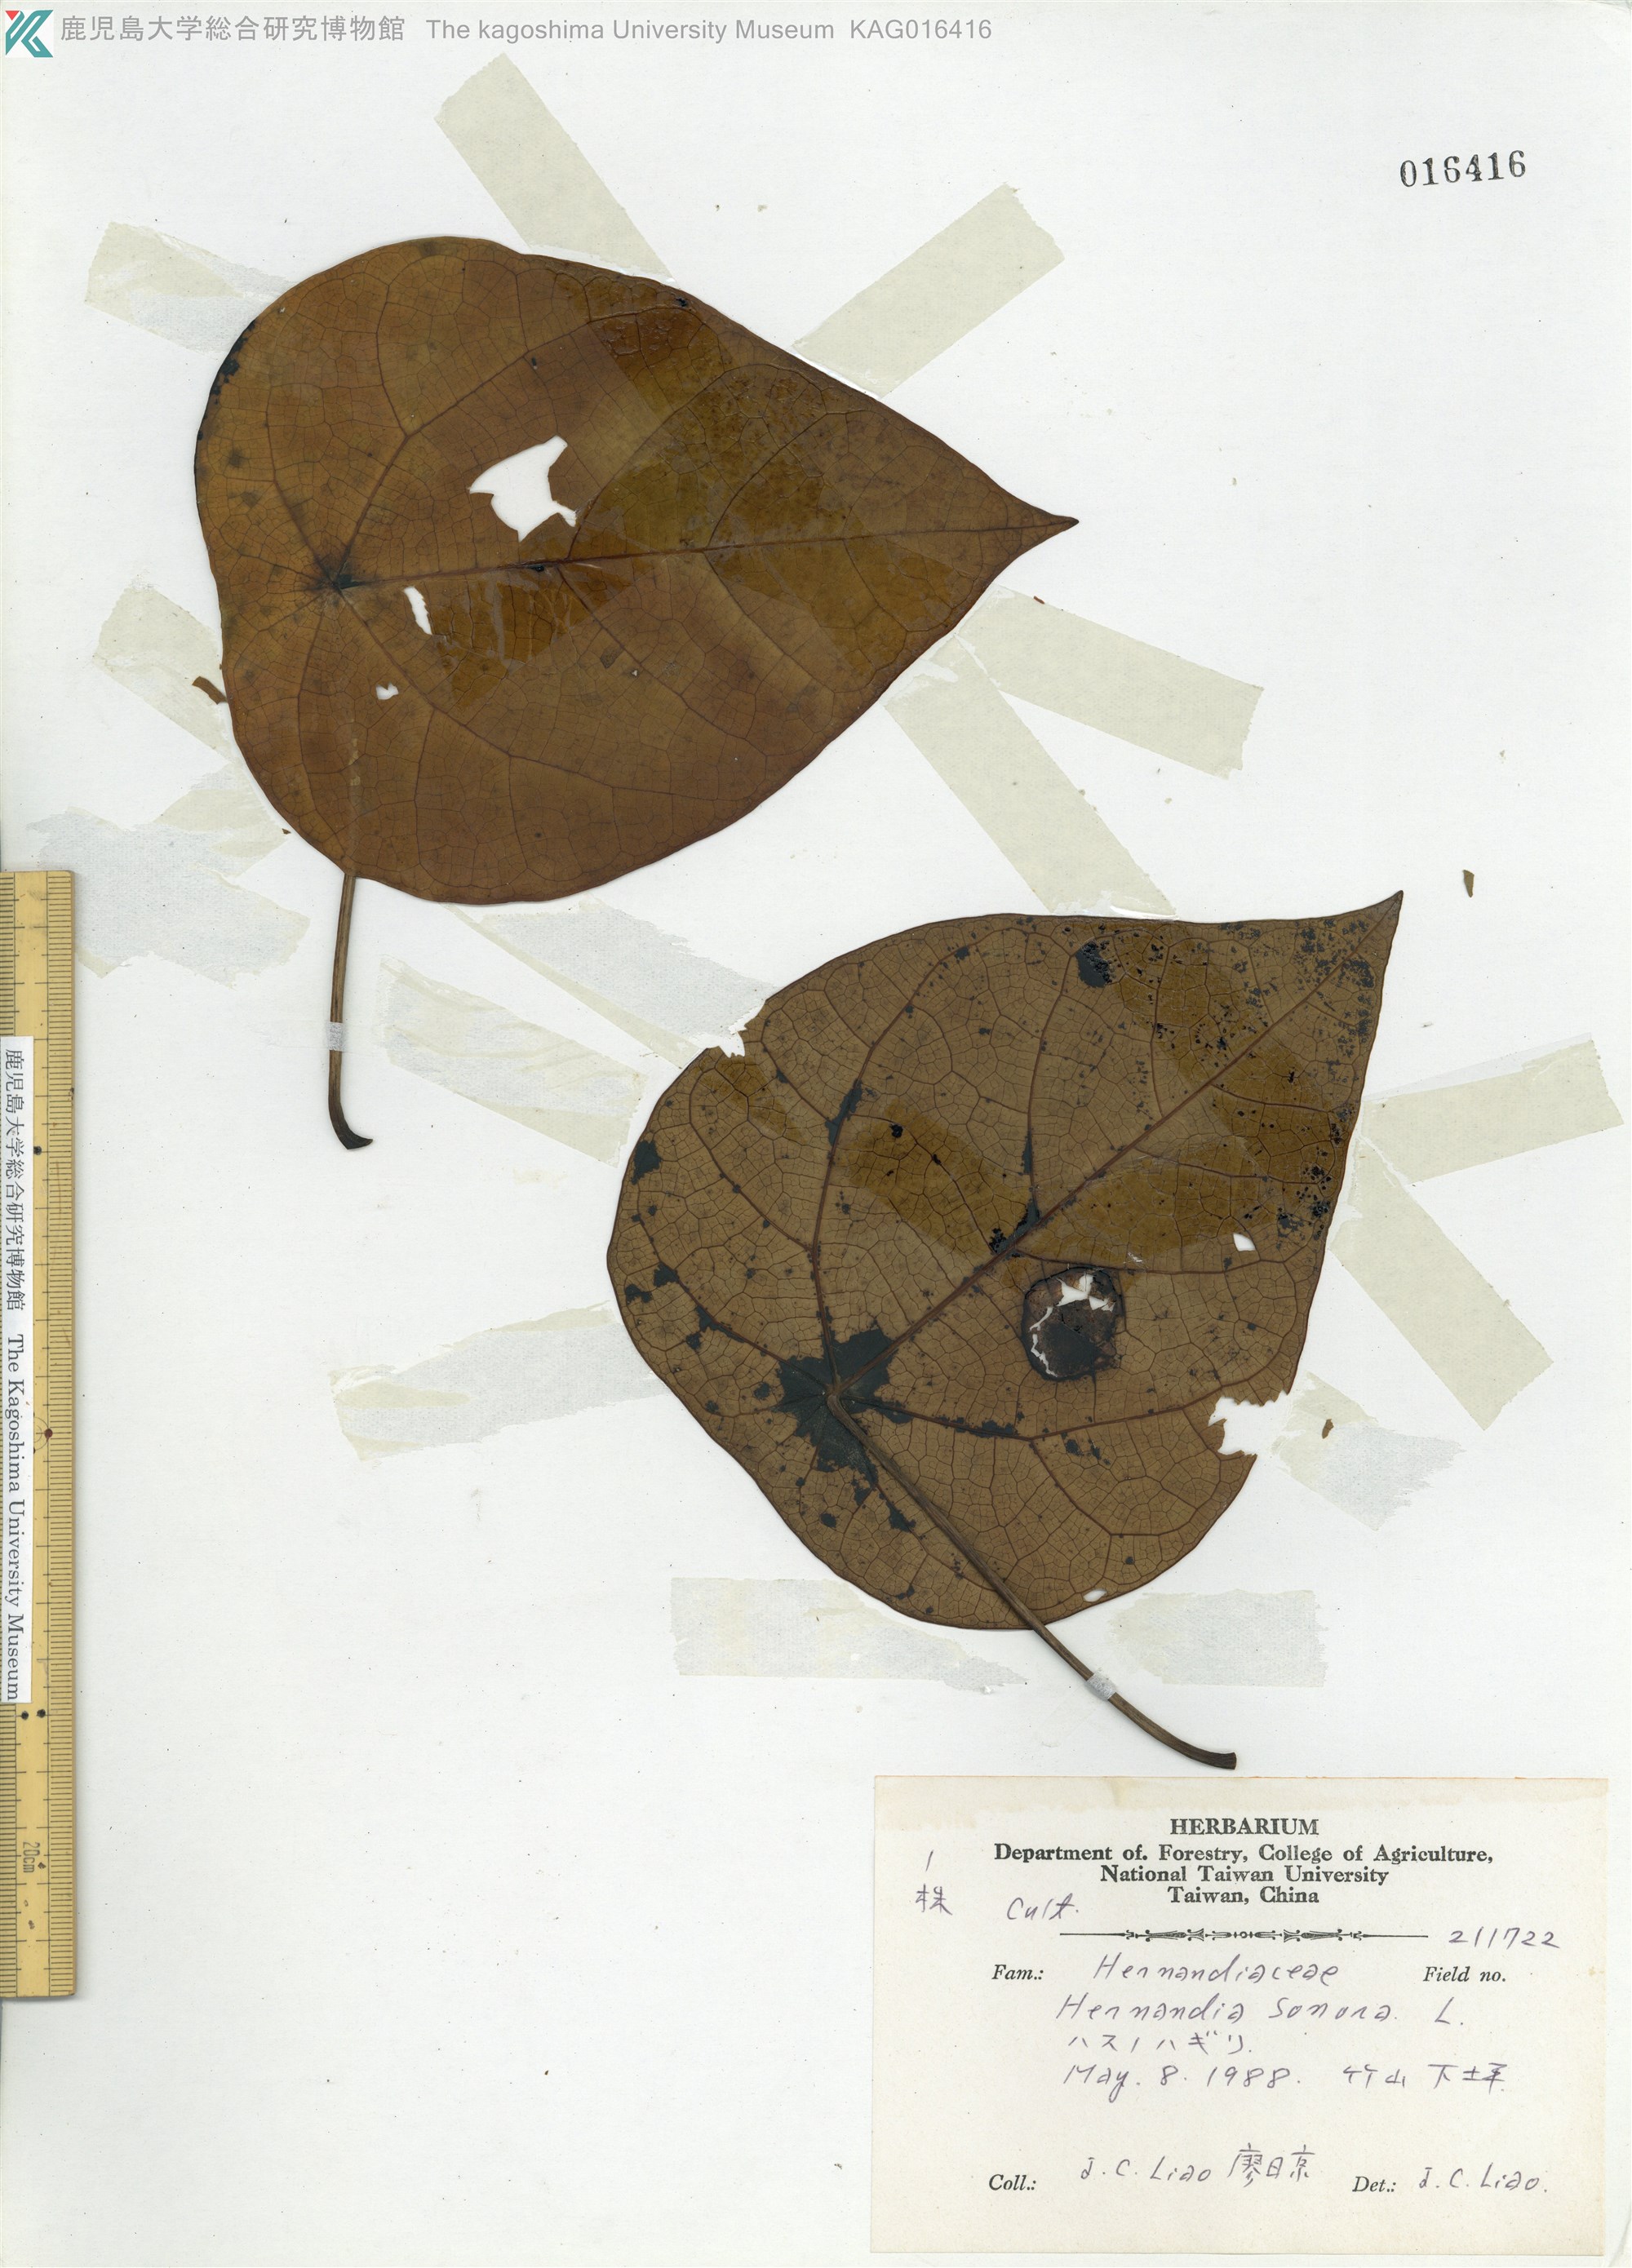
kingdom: Plantae
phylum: Tracheophyta
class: Magnoliopsida
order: Laurales
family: Hernandiaceae
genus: Hernandia
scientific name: Hernandia nymphaeifolia
